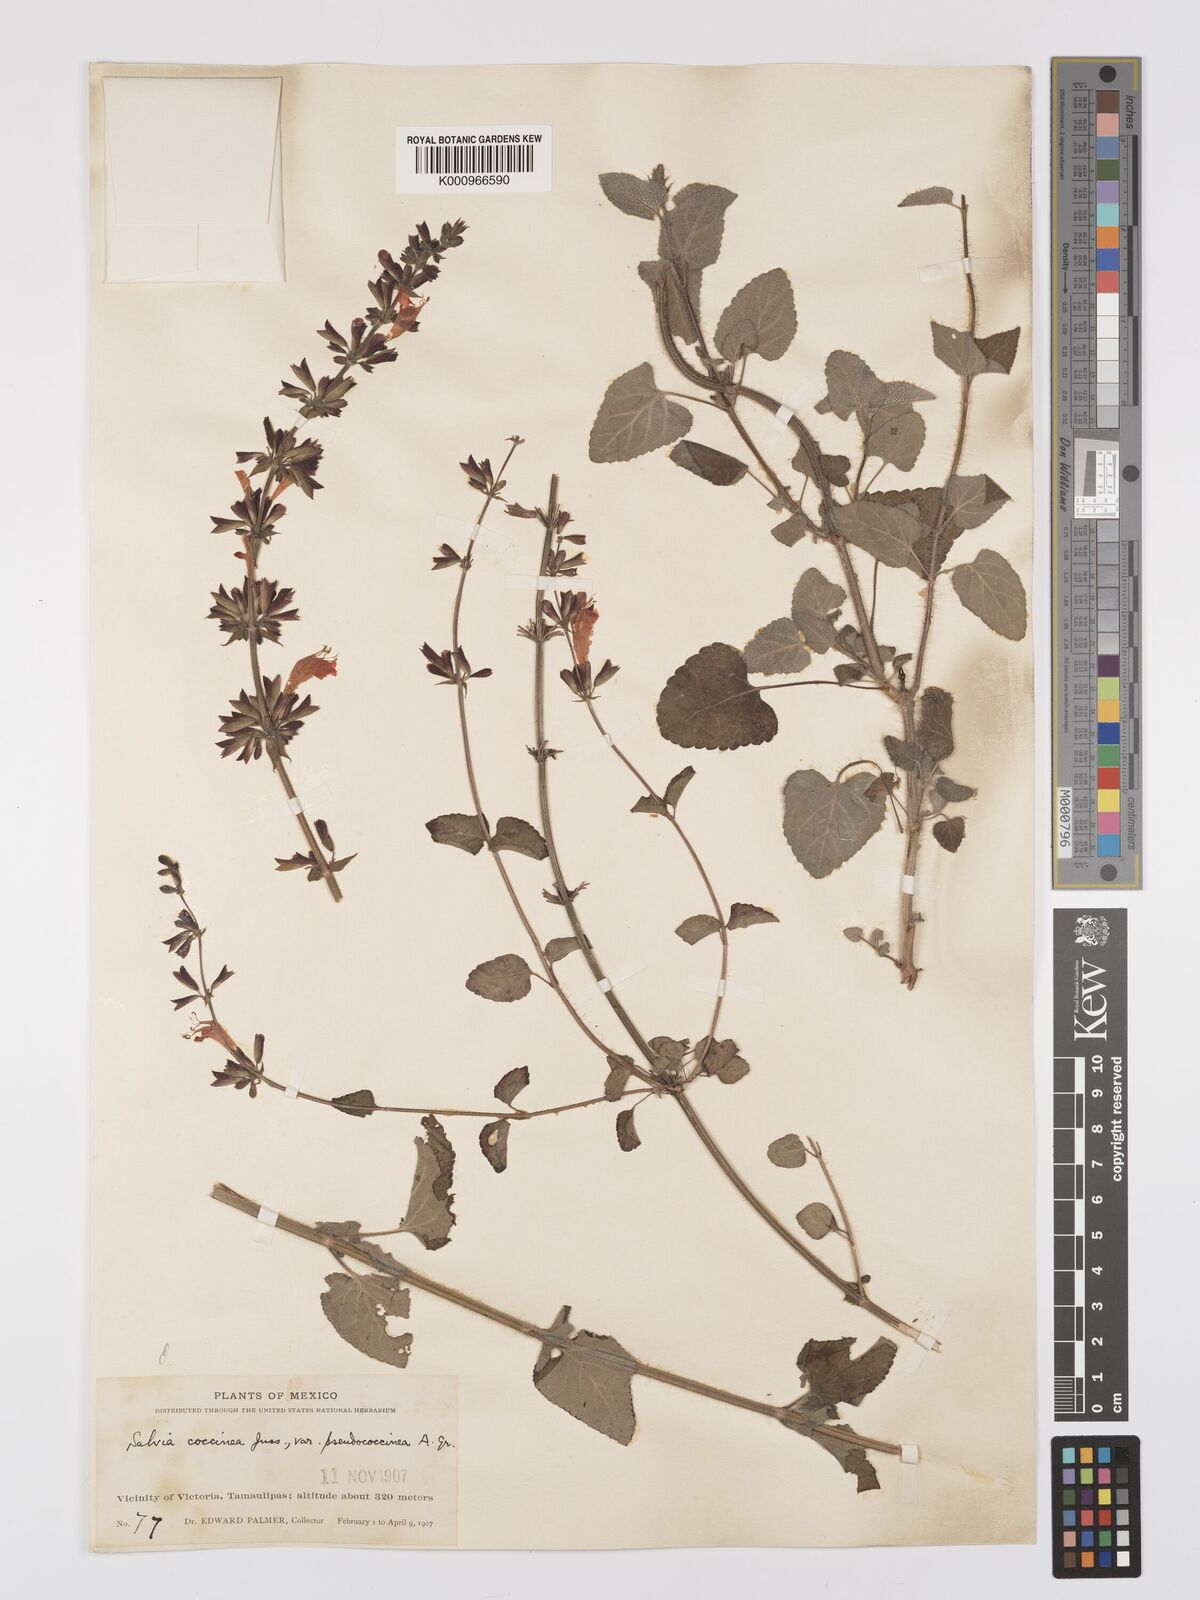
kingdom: Plantae
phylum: Tracheophyta
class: Magnoliopsida
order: Lamiales
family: Lamiaceae
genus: Salvia
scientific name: Salvia
